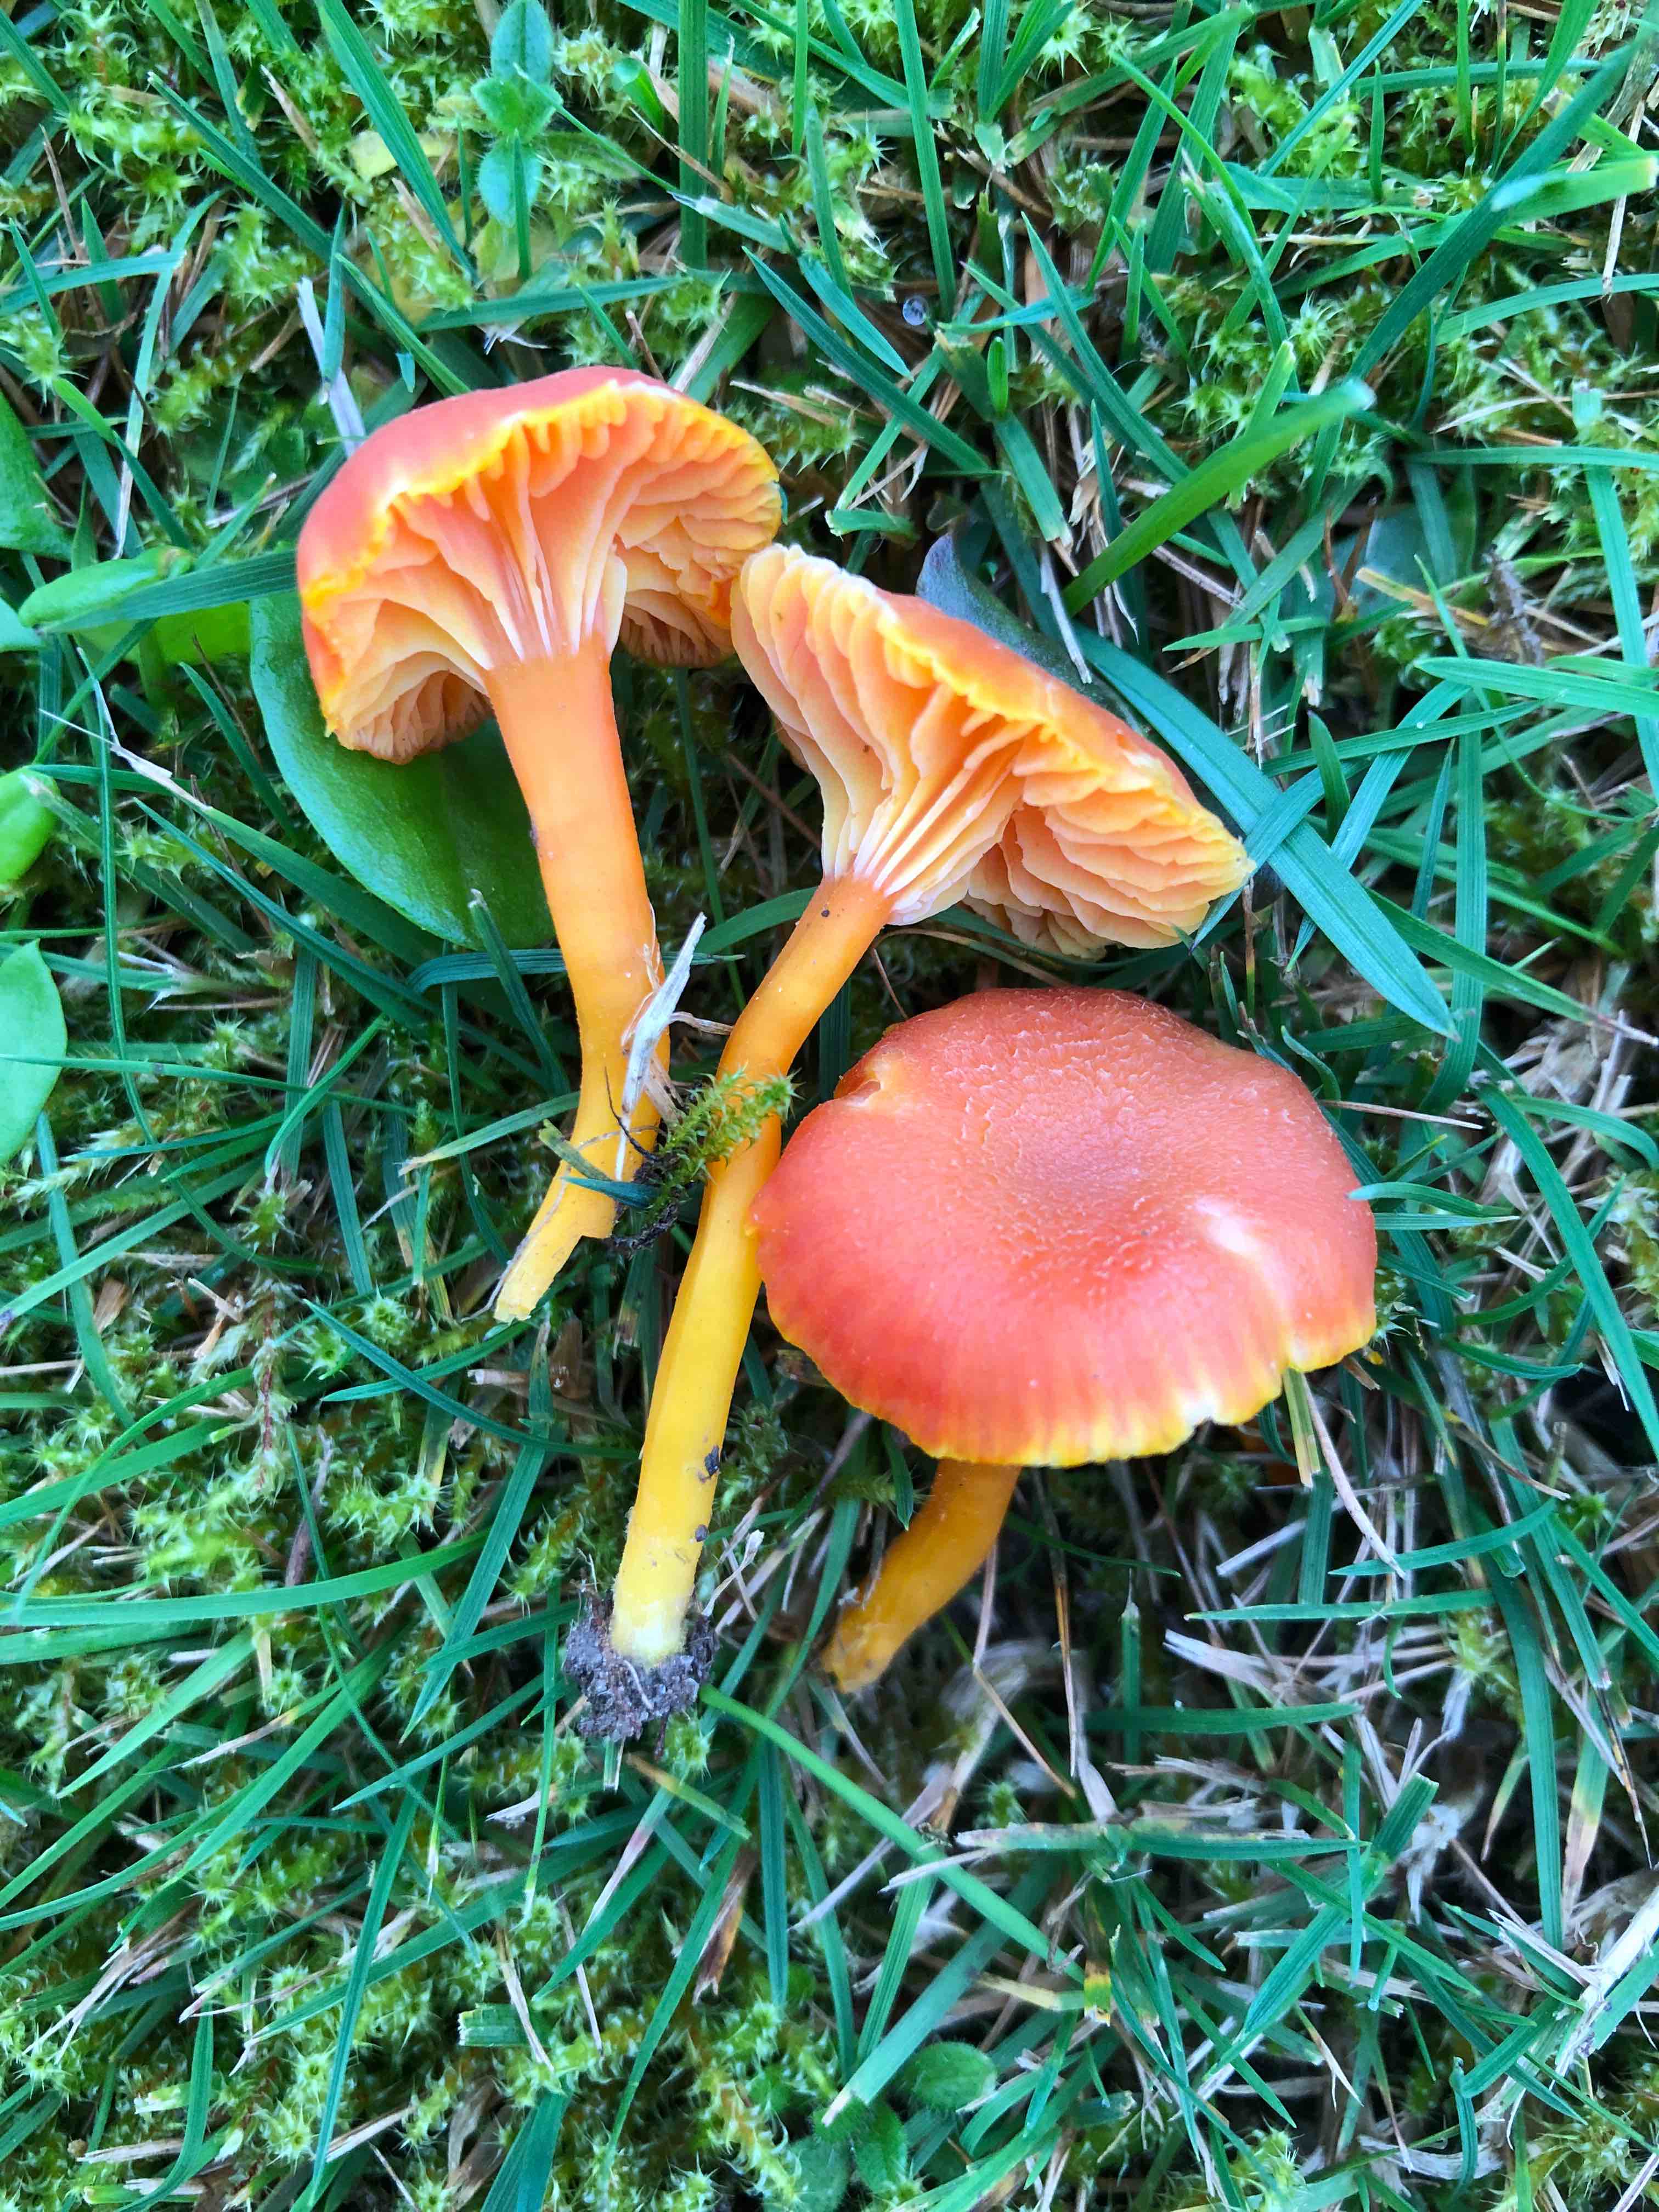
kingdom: Fungi
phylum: Basidiomycota
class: Agaricomycetes
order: Agaricales
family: Hygrophoraceae
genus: Hygrocybe
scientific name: Hygrocybe cantharellus
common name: kantarel-vokshat
